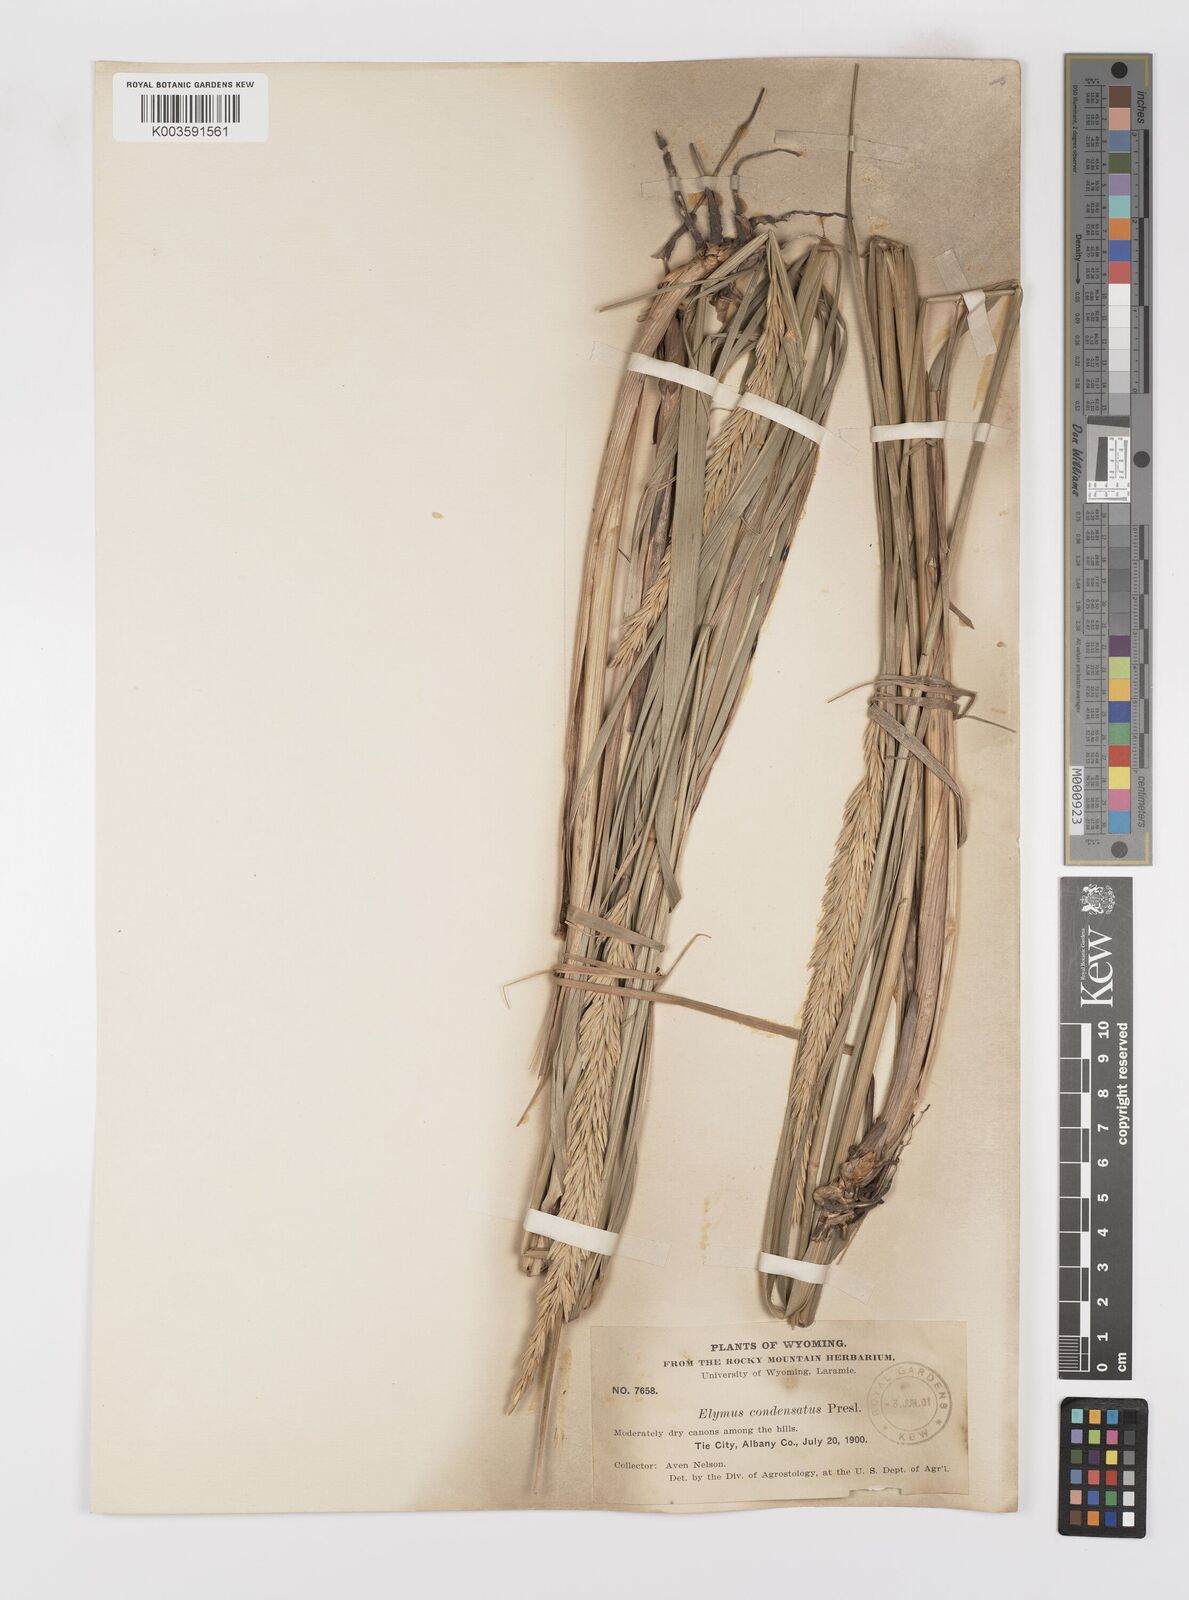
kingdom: Plantae
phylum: Tracheophyta
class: Liliopsida
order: Poales
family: Poaceae
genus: Leymus
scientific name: Leymus condensatus
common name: Giant wild rye
